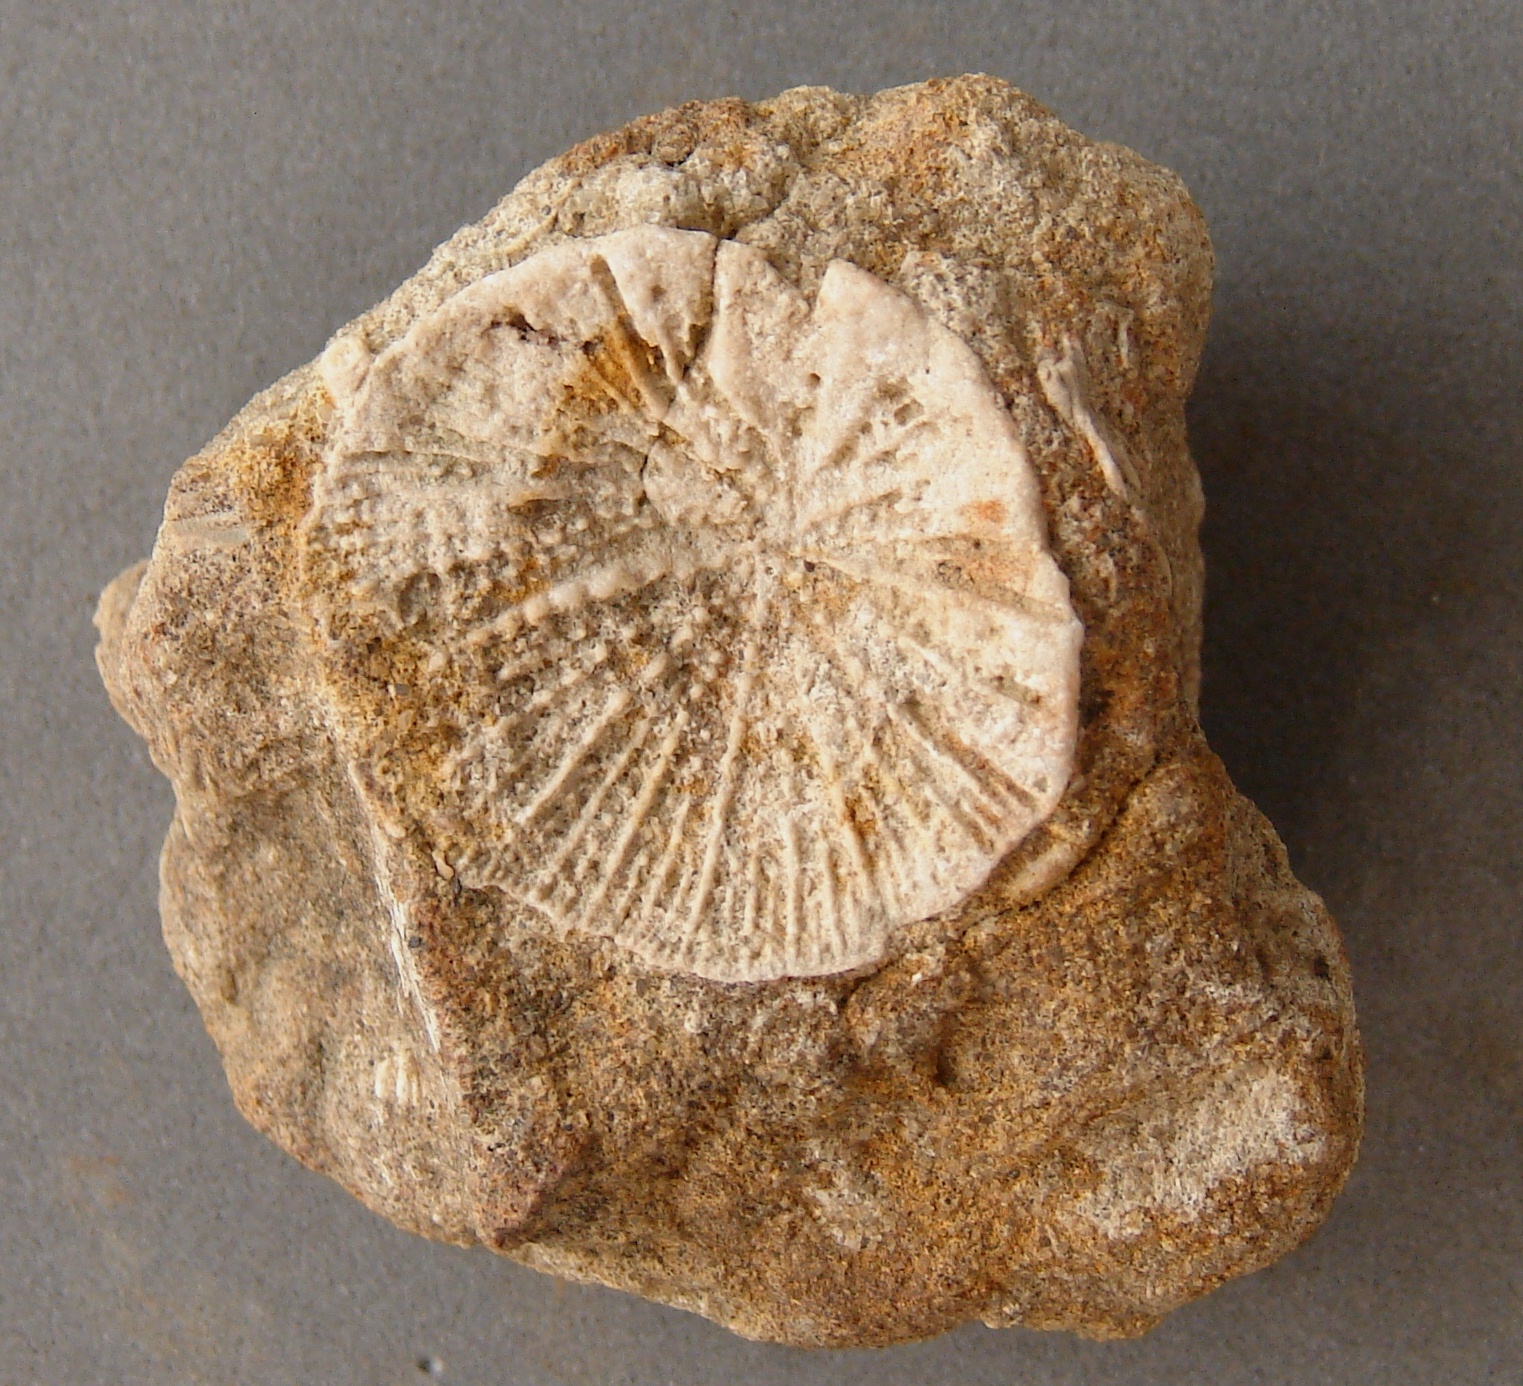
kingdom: Animalia
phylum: Cnidaria
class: Anthozoa
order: Scleractinia
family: Thecosmiliidae
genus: Montlivaltia
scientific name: Montlivaltia haimei
